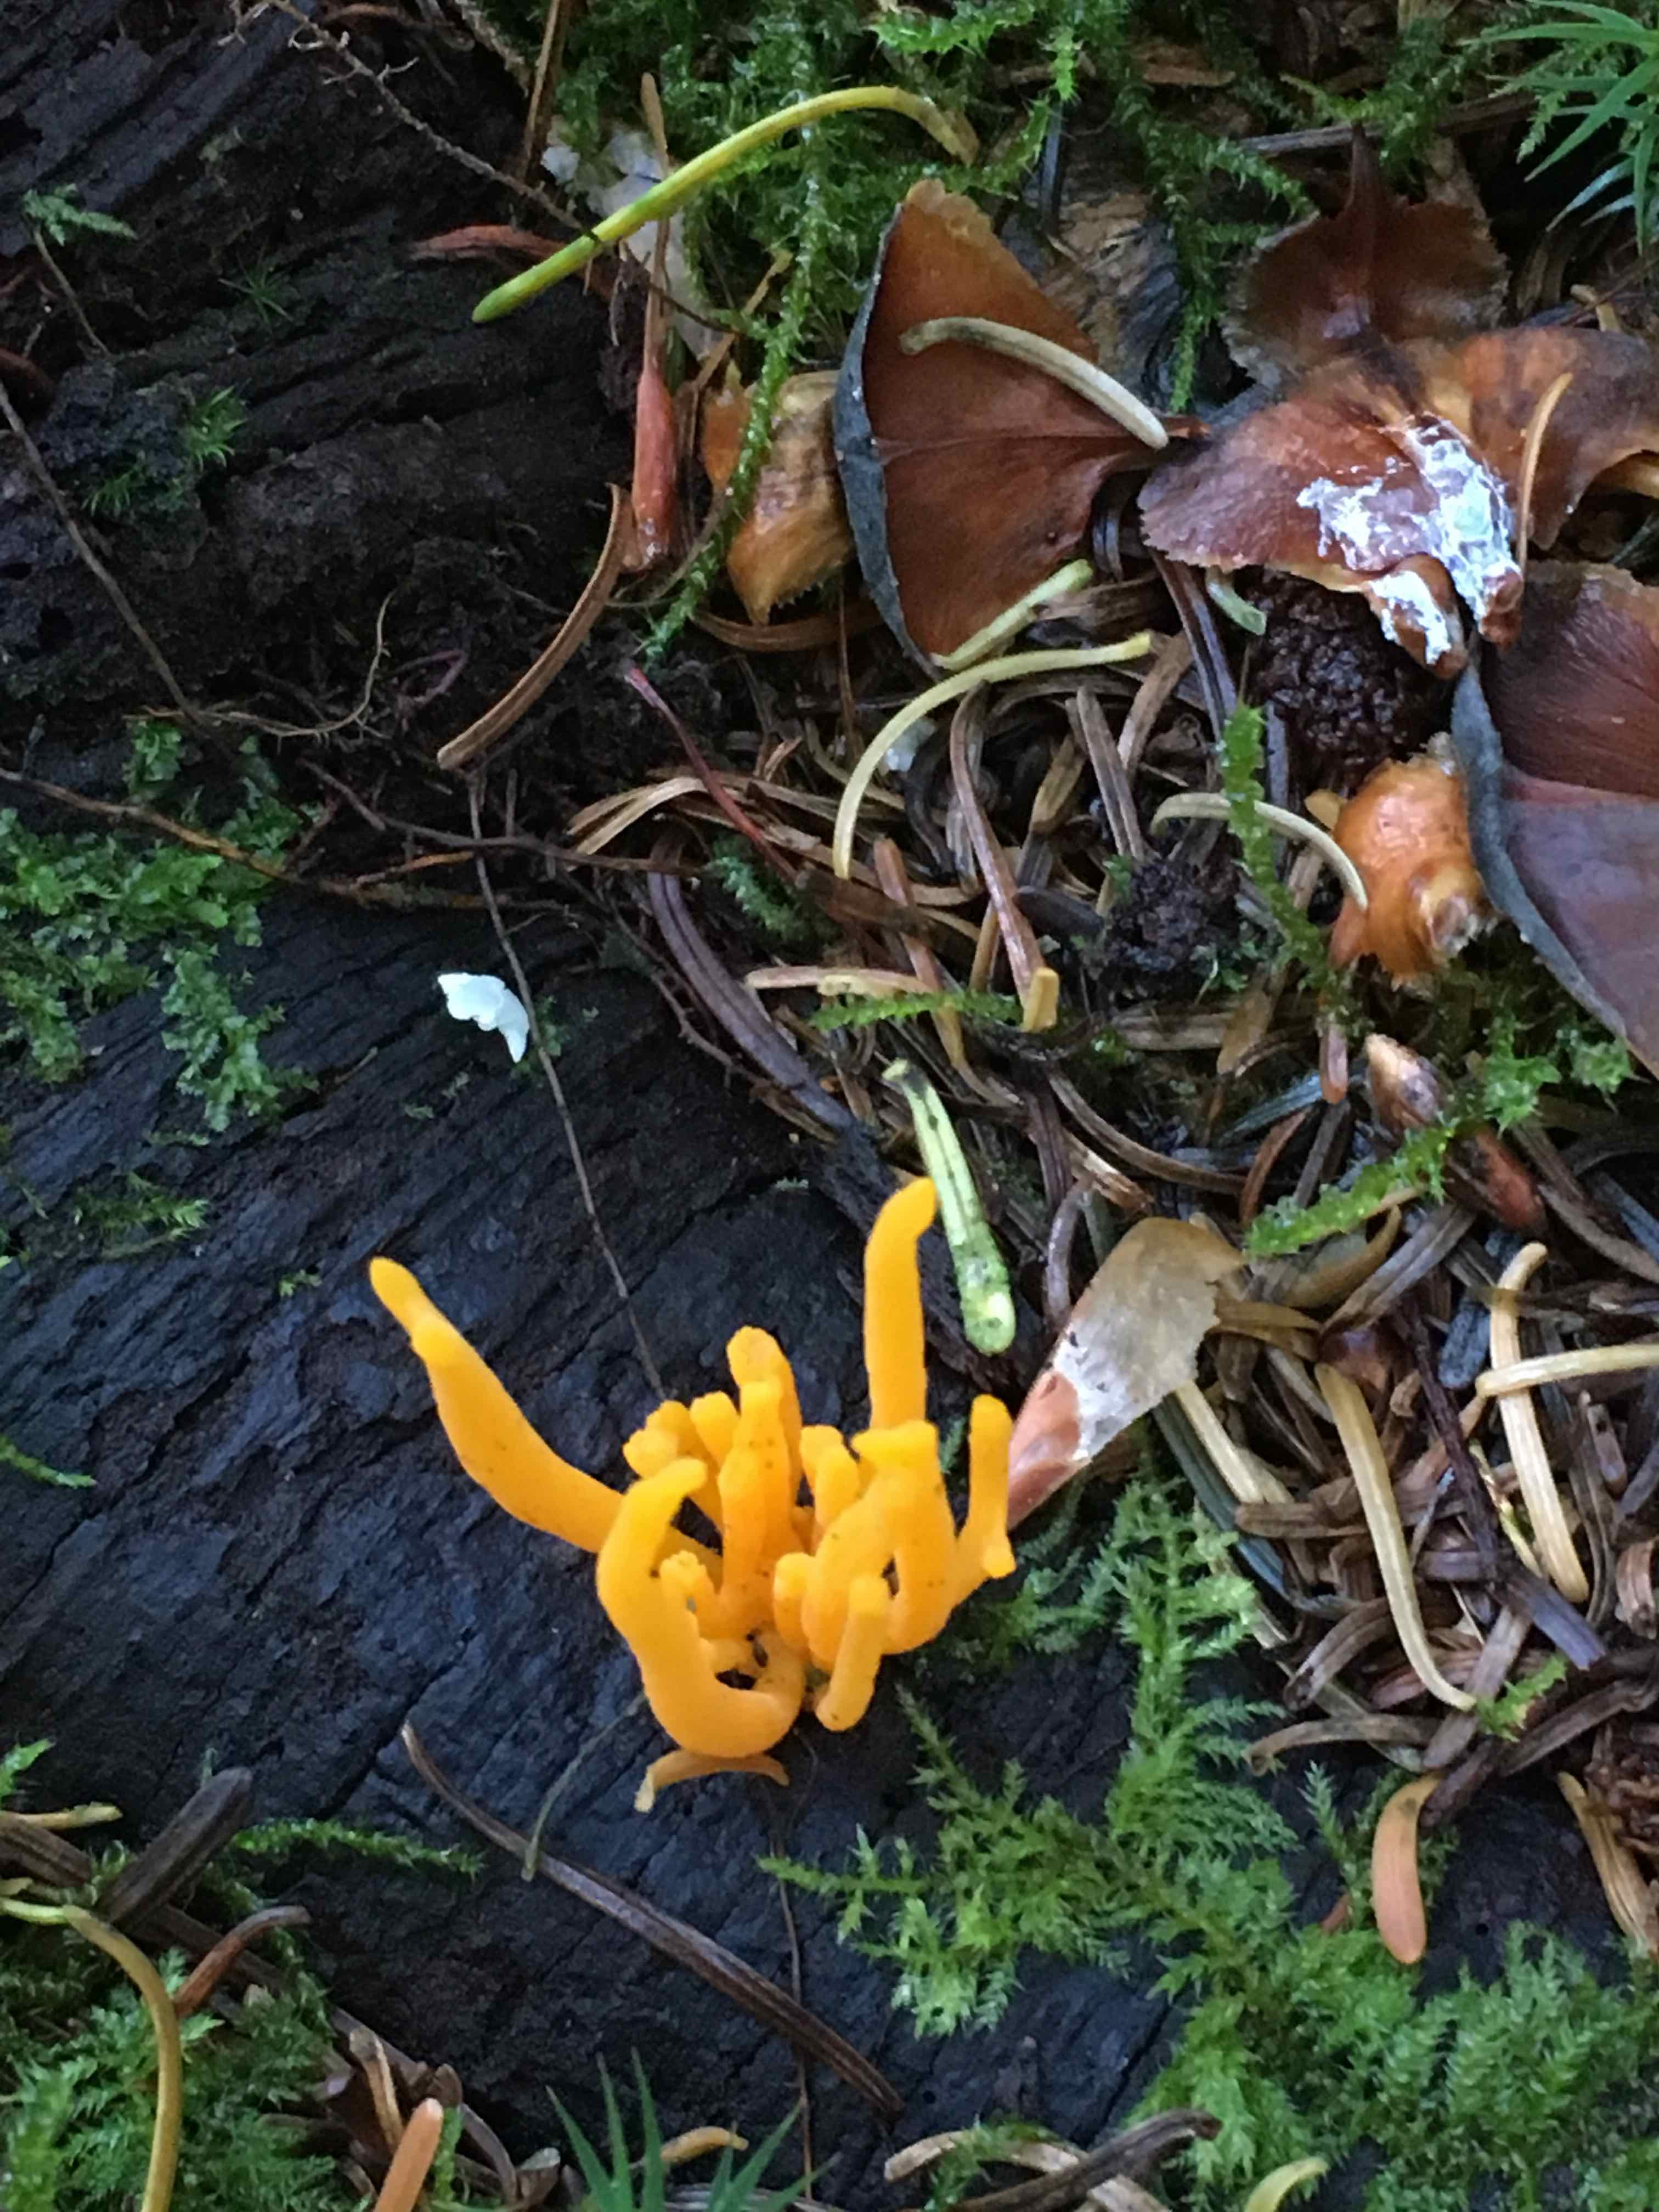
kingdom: Fungi
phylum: Basidiomycota
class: Dacrymycetes
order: Dacrymycetales
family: Dacrymycetaceae
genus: Calocera
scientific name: Calocera viscosa
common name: almindelig guldgaffel
